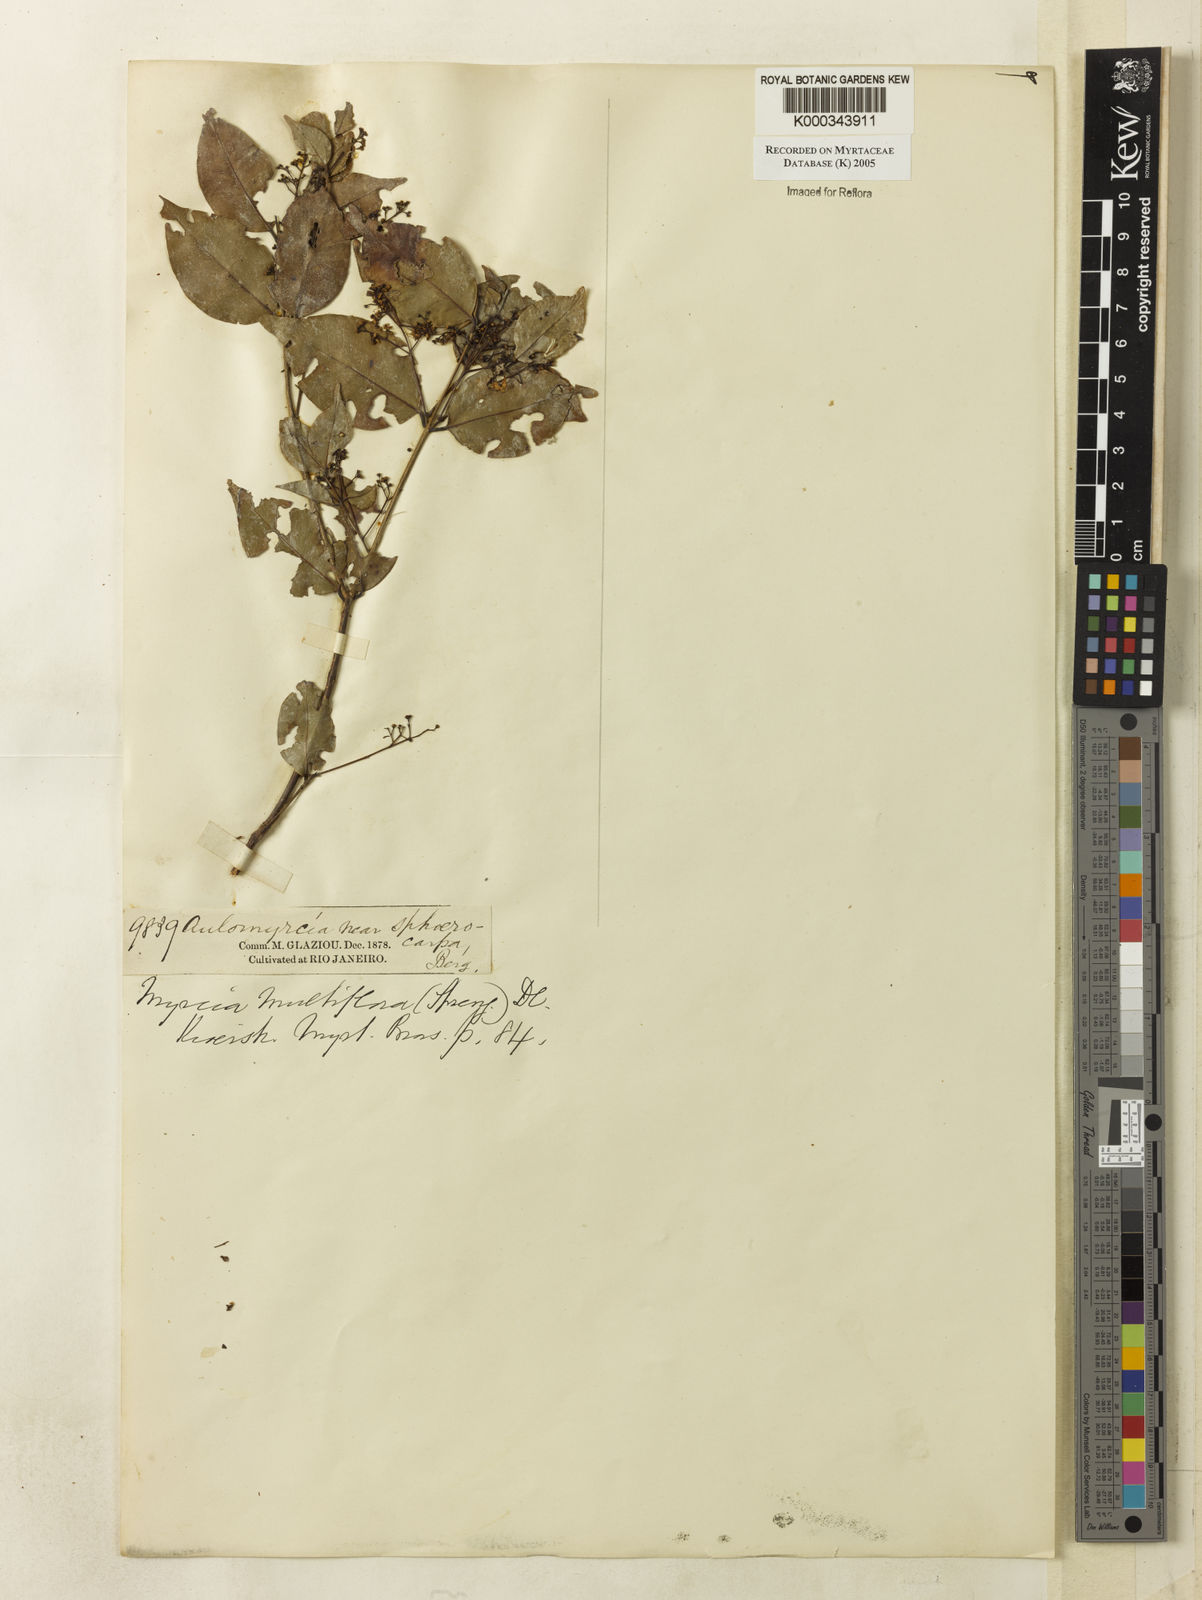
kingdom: Plantae
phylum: Tracheophyta
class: Magnoliopsida
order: Myrtales
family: Myrtaceae
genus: Myrcia
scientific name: Myrcia multiflora
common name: Pedra hume
